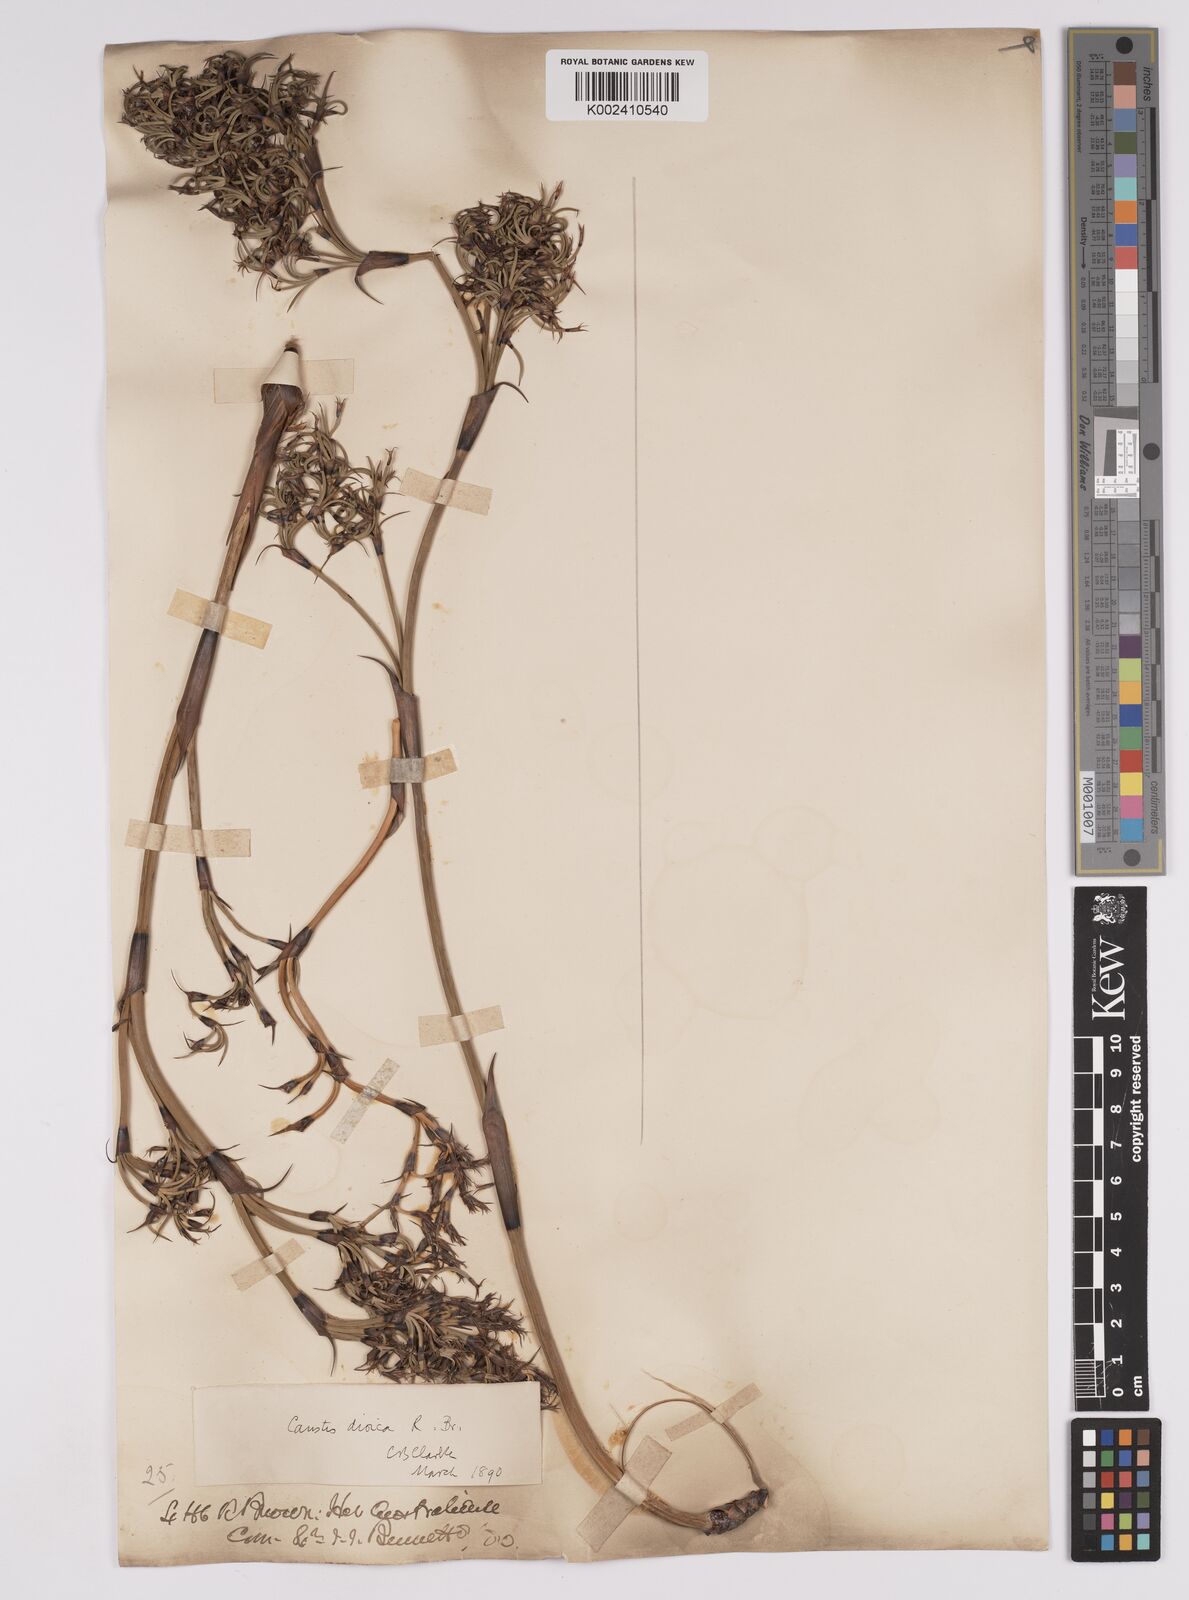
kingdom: Plantae
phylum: Tracheophyta
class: Liliopsida
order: Poales
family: Cyperaceae
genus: Caustis
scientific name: Caustis dioica
